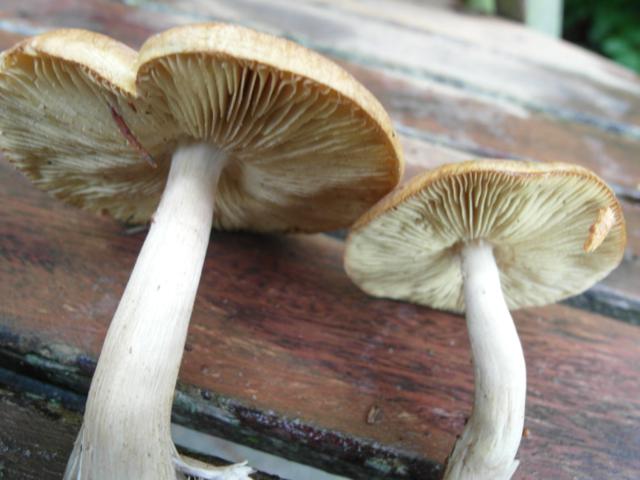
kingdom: Fungi
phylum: Basidiomycota
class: Agaricomycetes
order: Agaricales
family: Tricholomataceae
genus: Tricholoma
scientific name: Tricholoma aestuans
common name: kegle-ridderhat
